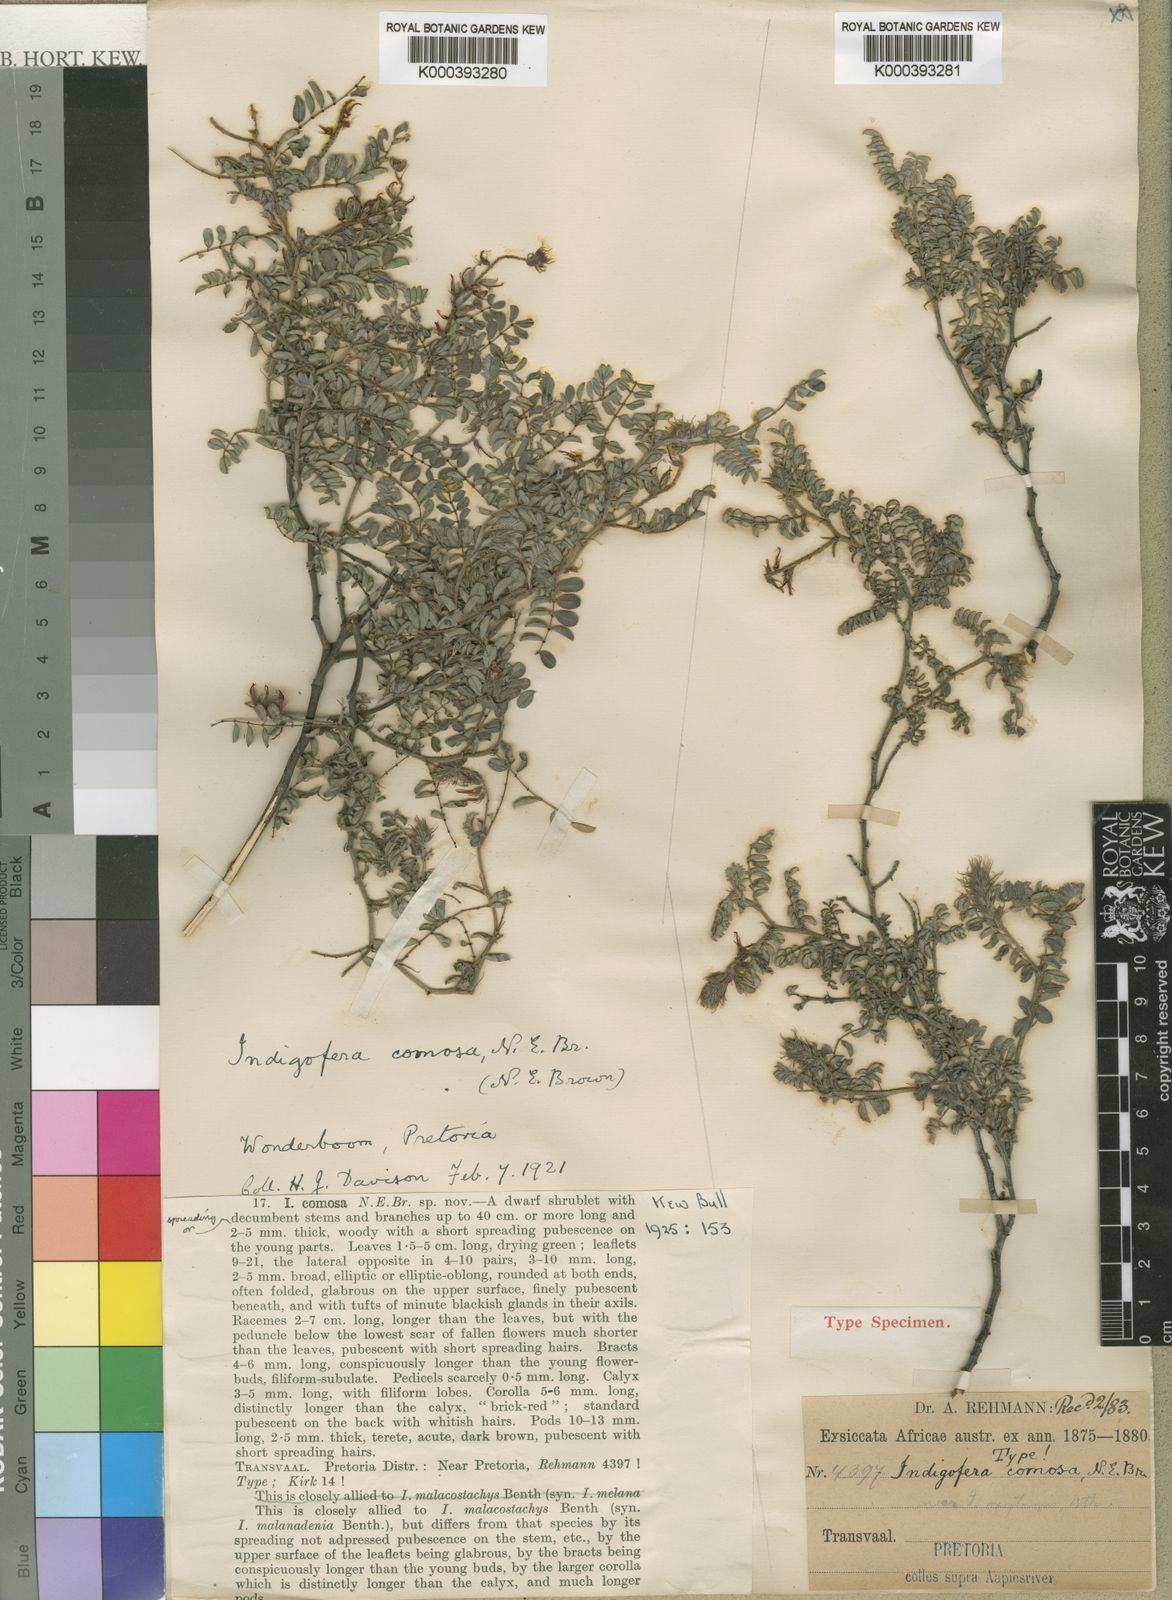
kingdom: Plantae
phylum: Tracheophyta
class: Magnoliopsida
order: Fabales
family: Fabaceae
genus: Indigofera
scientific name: Indigofera comosa
